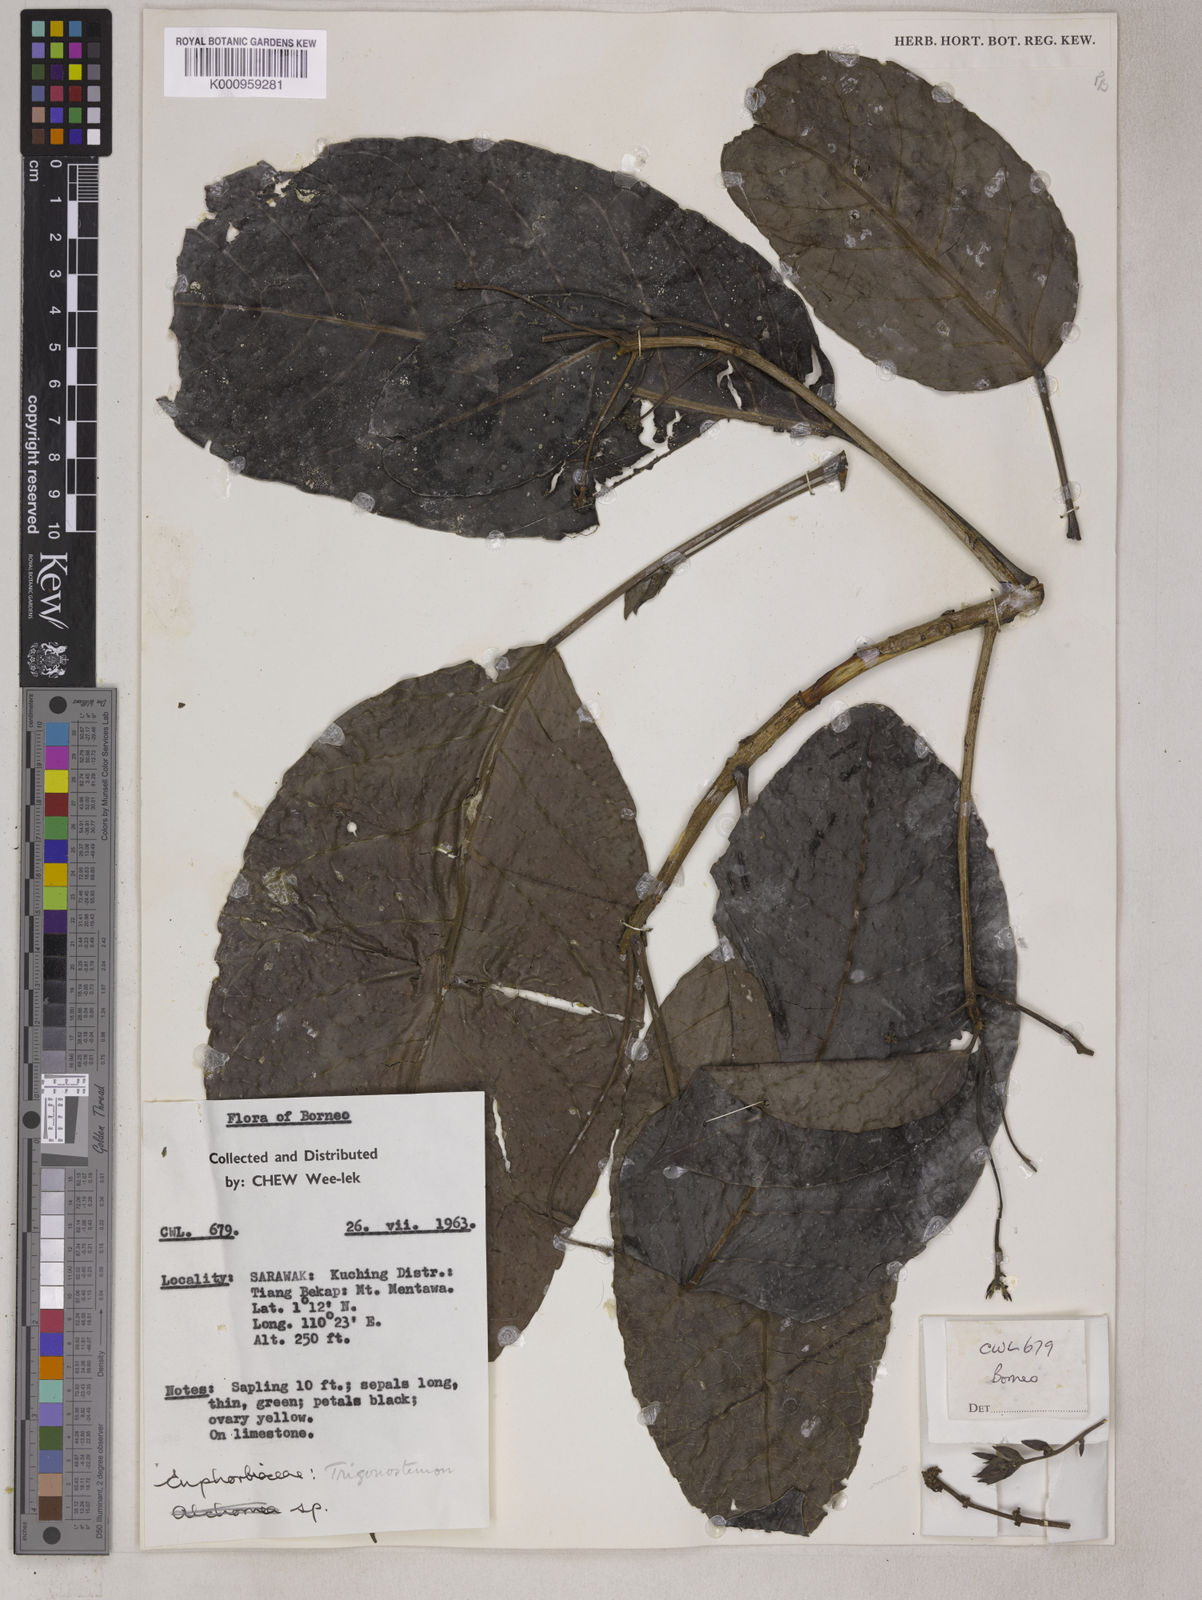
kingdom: Plantae
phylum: Tracheophyta
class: Magnoliopsida
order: Malpighiales
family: Euphorbiaceae
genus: Trigonostemon
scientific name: Trigonostemon borneensis
